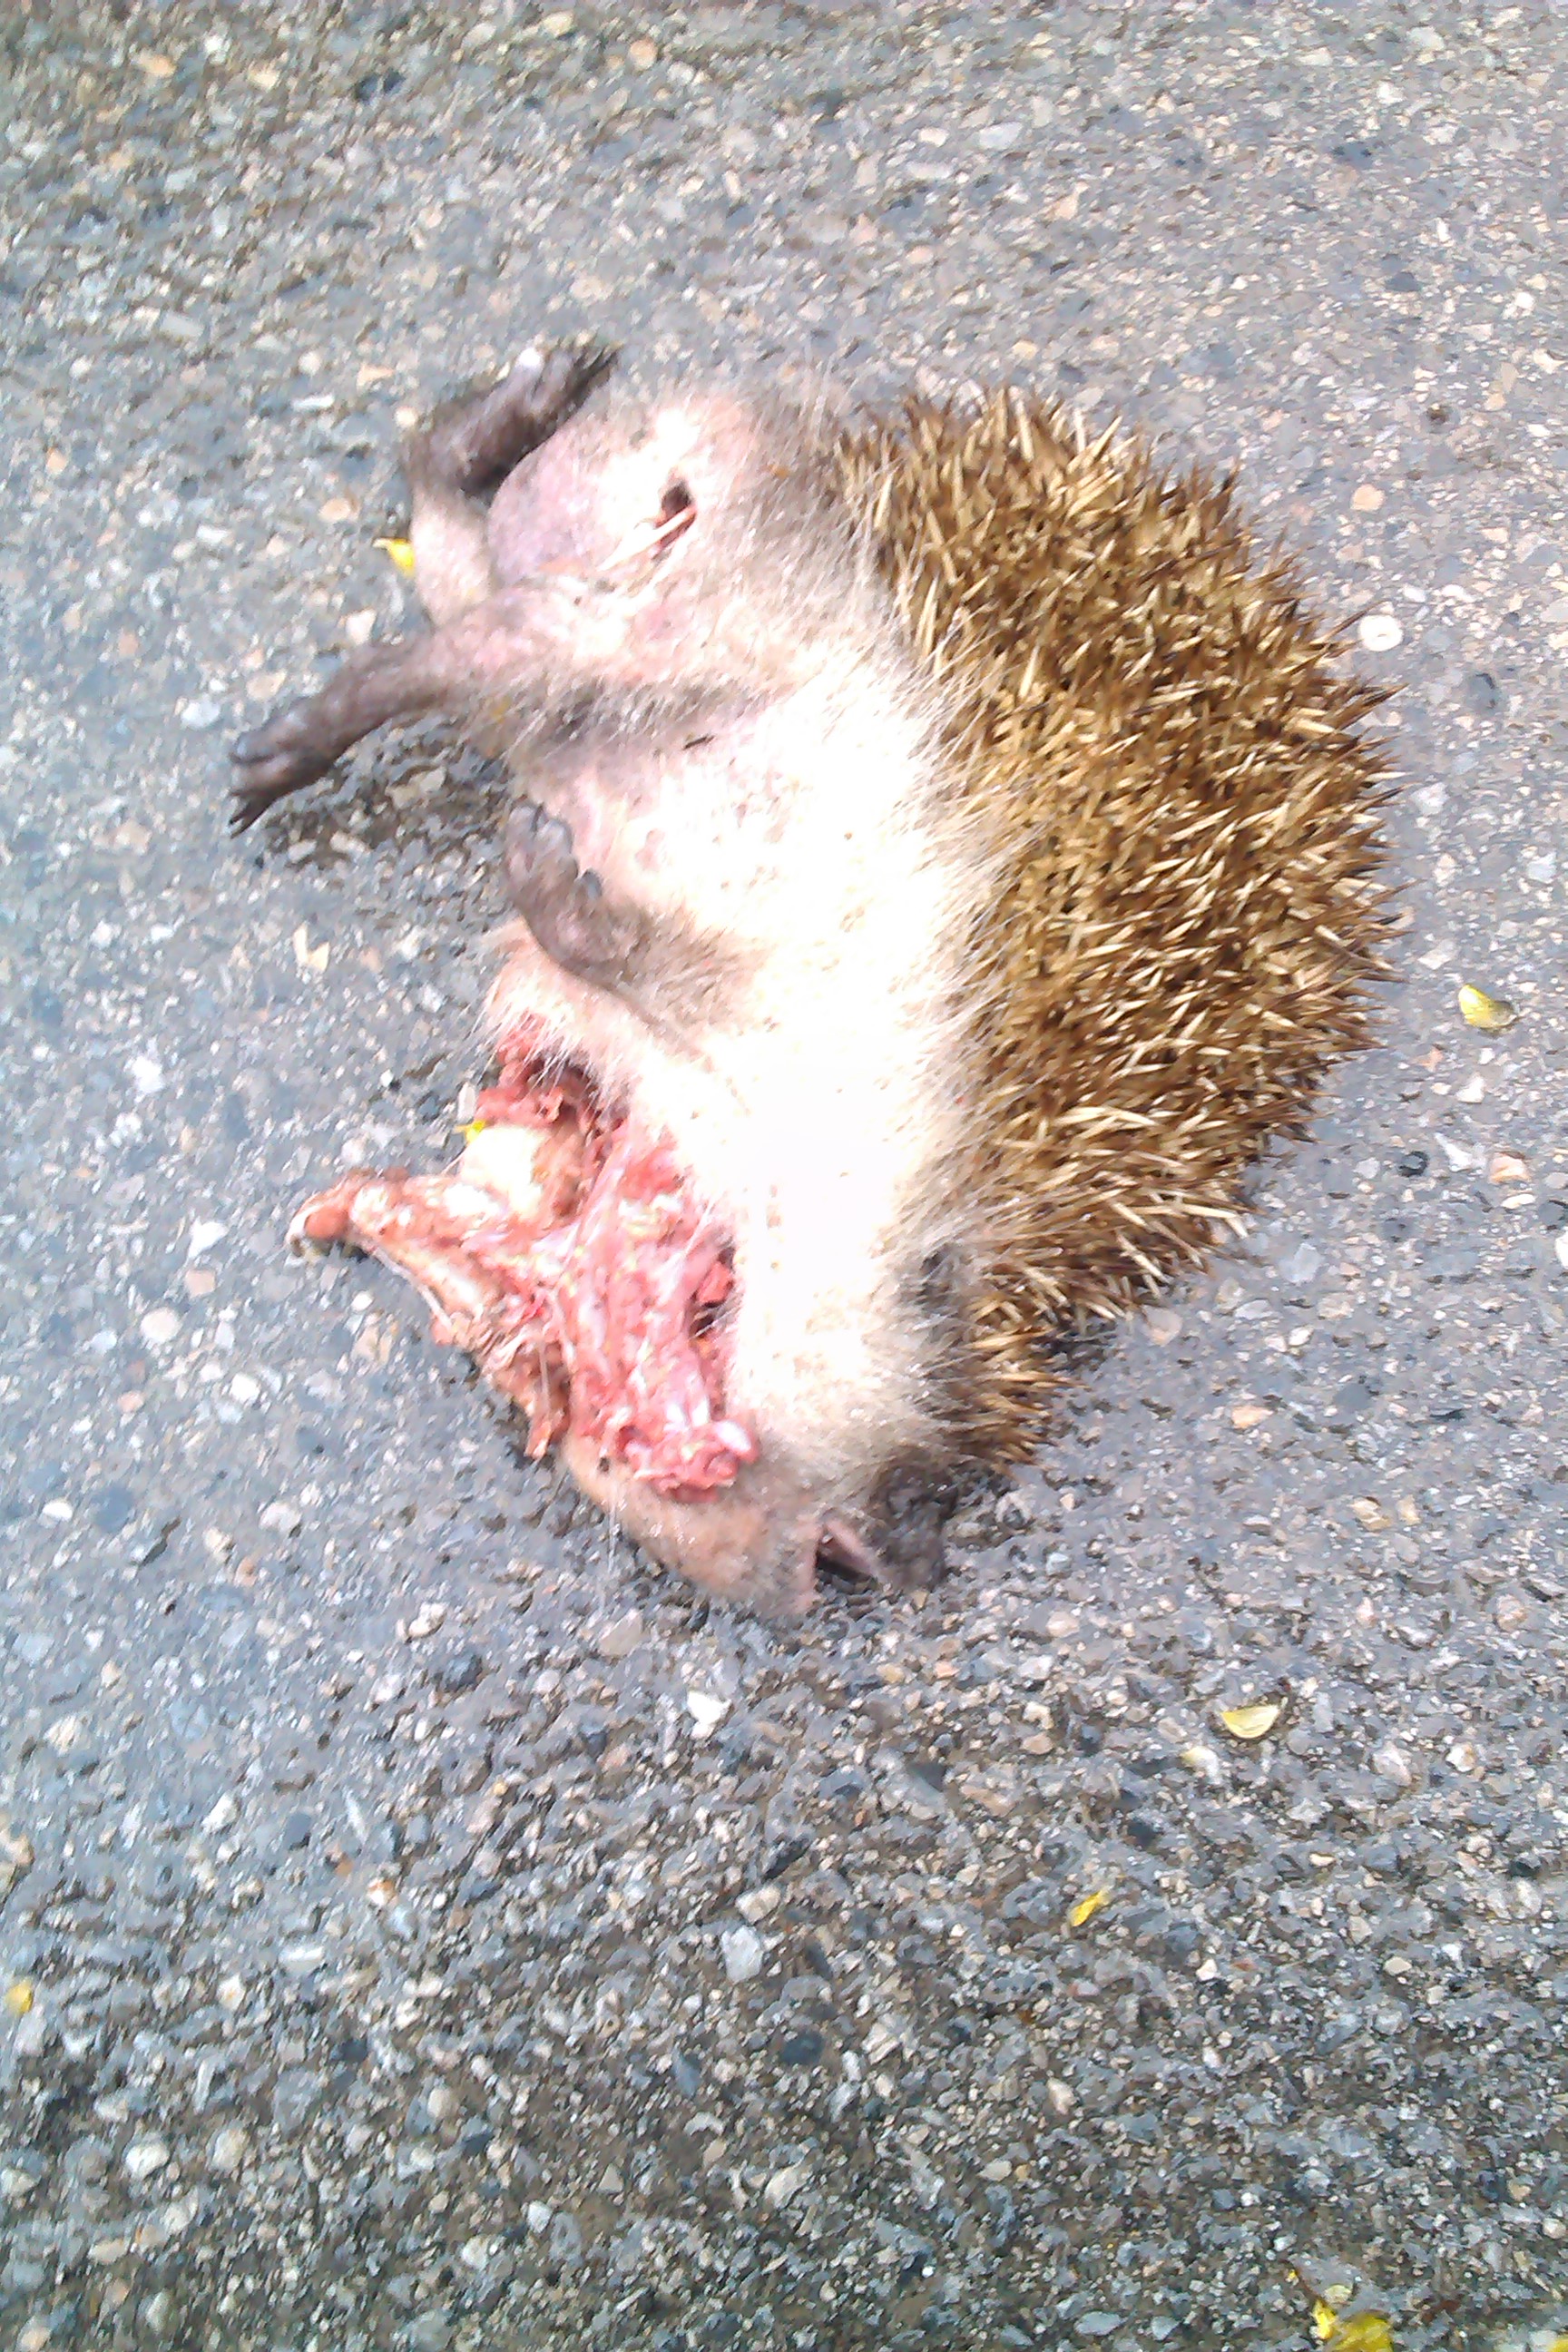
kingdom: Animalia
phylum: Chordata
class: Mammalia
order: Erinaceomorpha
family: Erinaceidae
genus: Erinaceus
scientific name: Erinaceus
